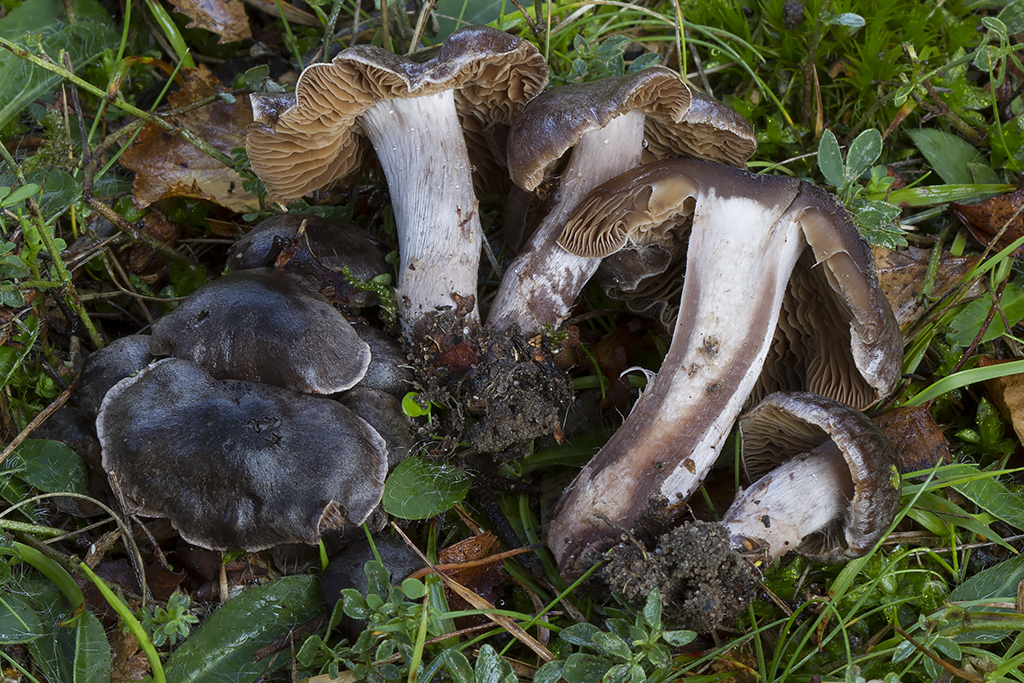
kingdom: Fungi
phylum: Basidiomycota
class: Agaricomycetes
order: Agaricales
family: Cortinariaceae
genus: Cortinarius
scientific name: Cortinarius
